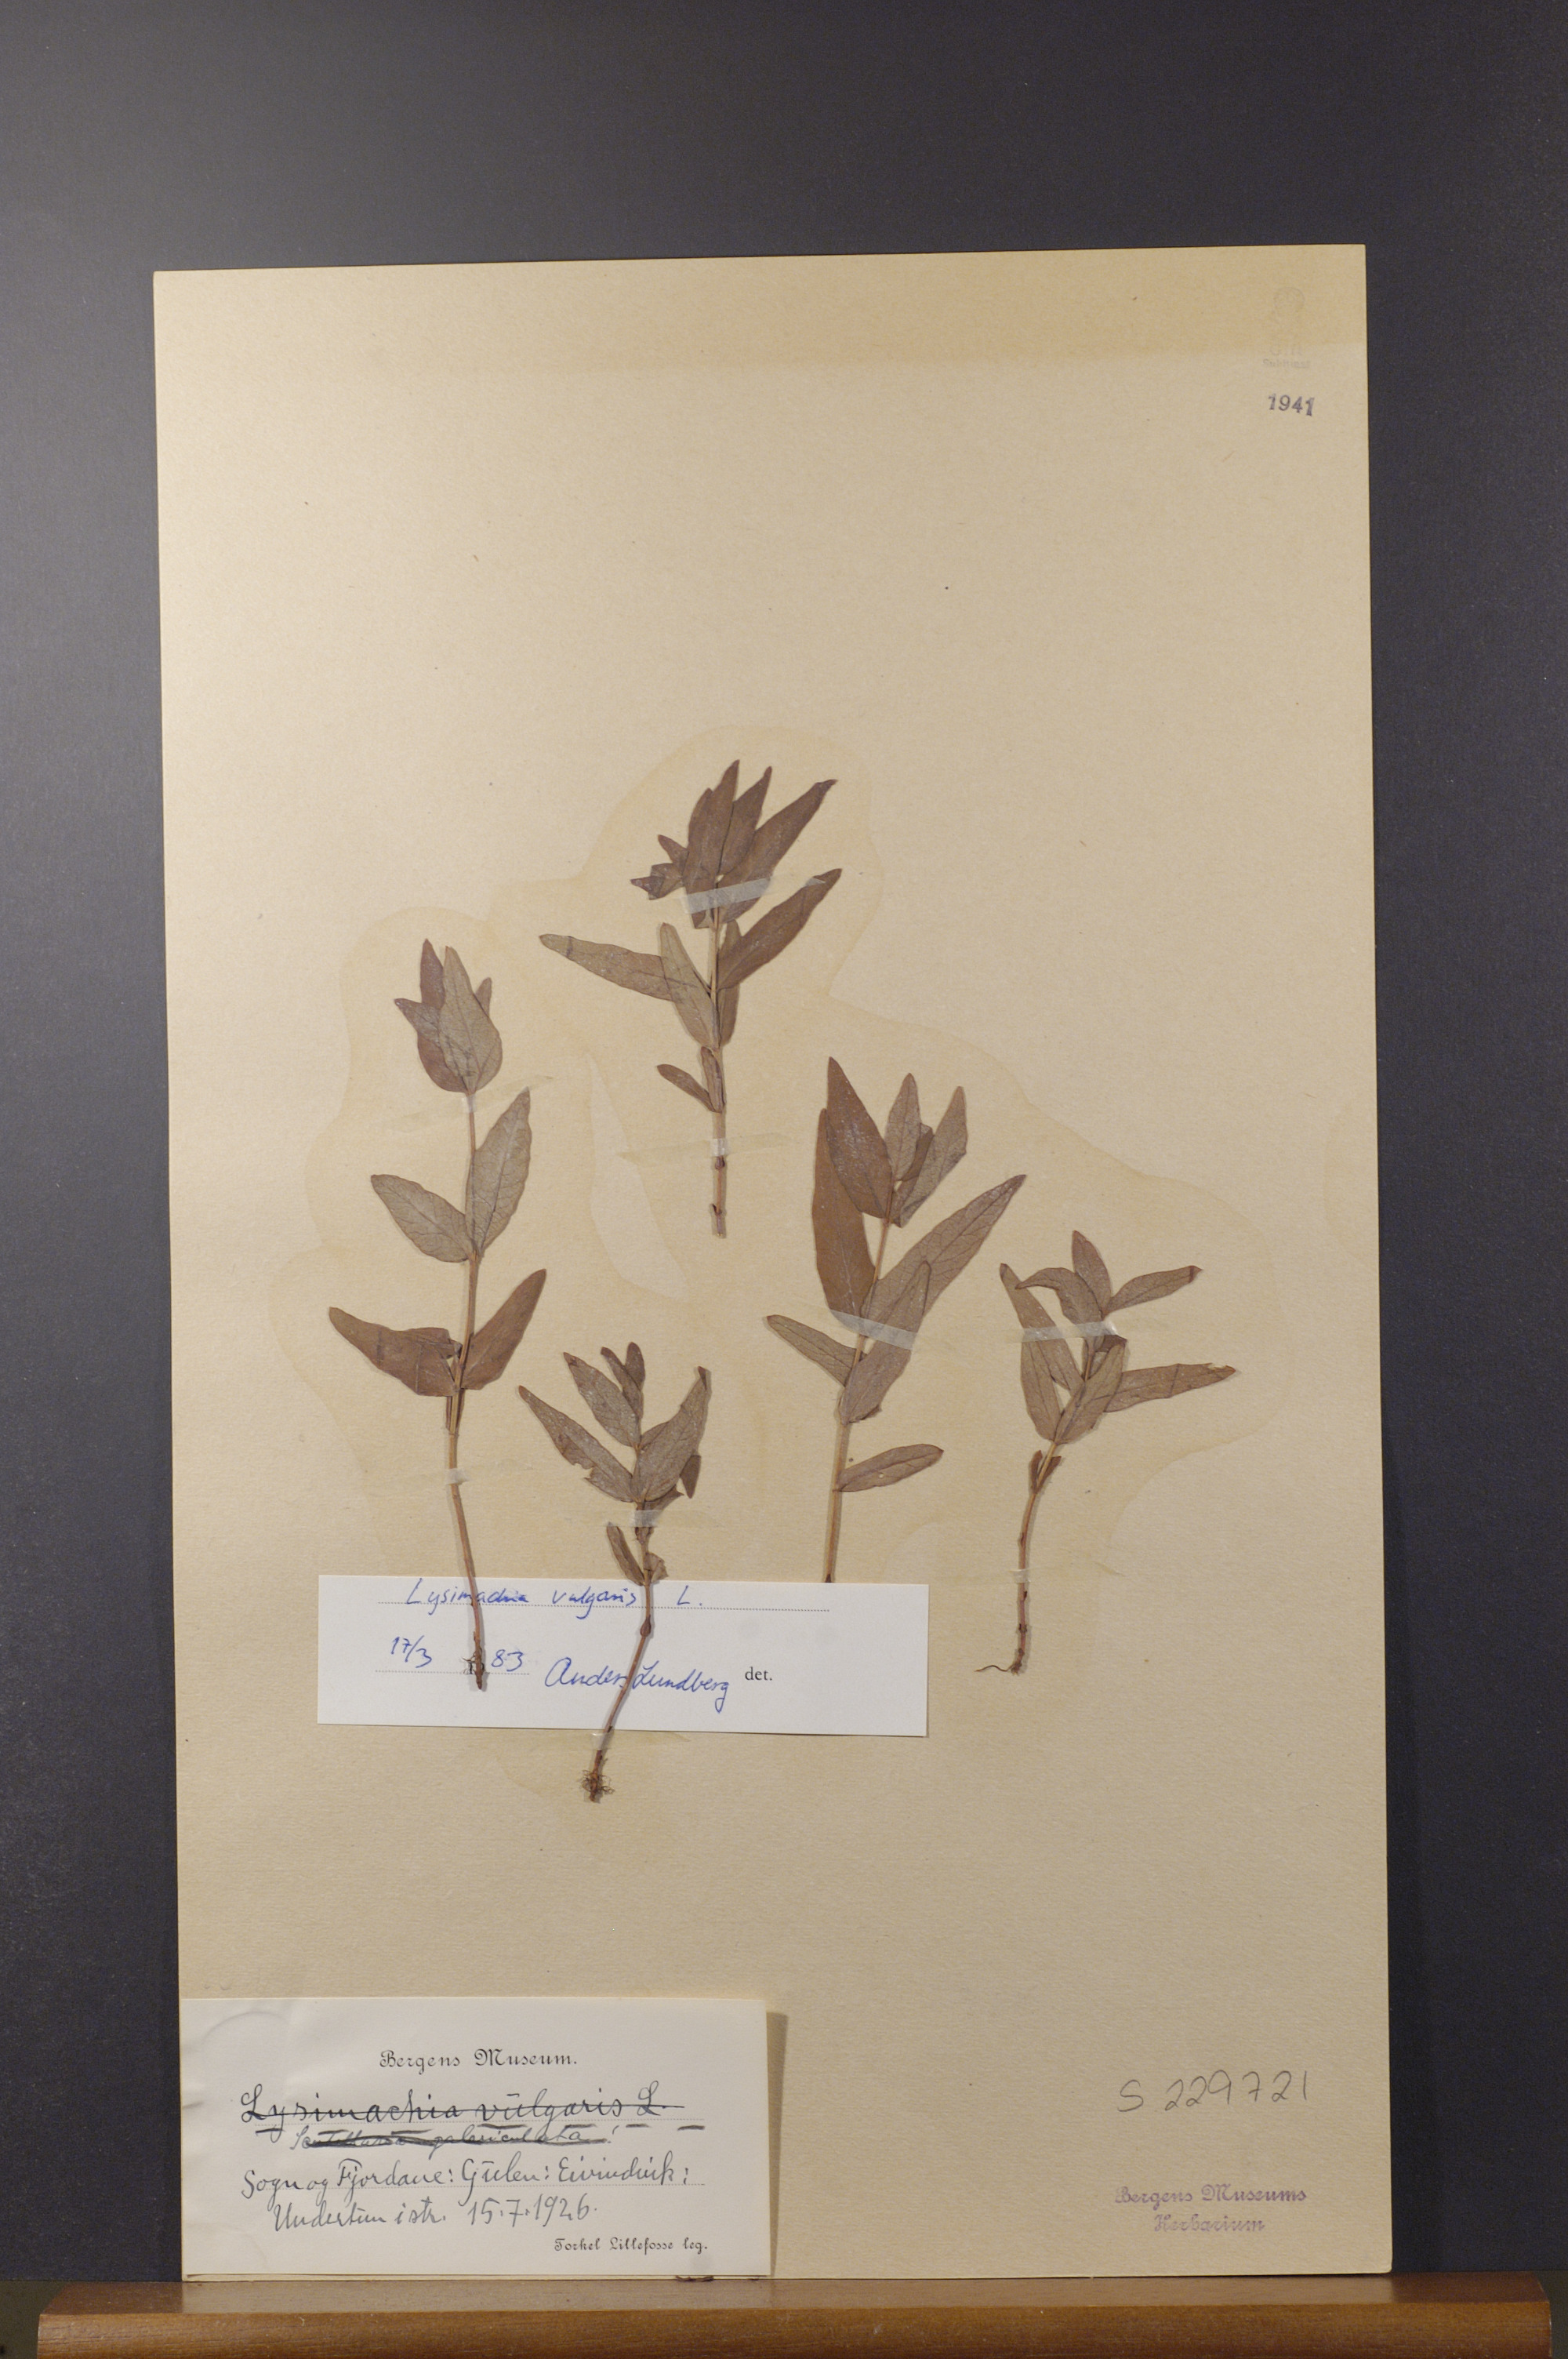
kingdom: Plantae
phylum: Tracheophyta
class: Magnoliopsida
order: Ericales
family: Primulaceae
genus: Lysimachia
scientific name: Lysimachia vulgaris
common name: Yellow loosestrife
